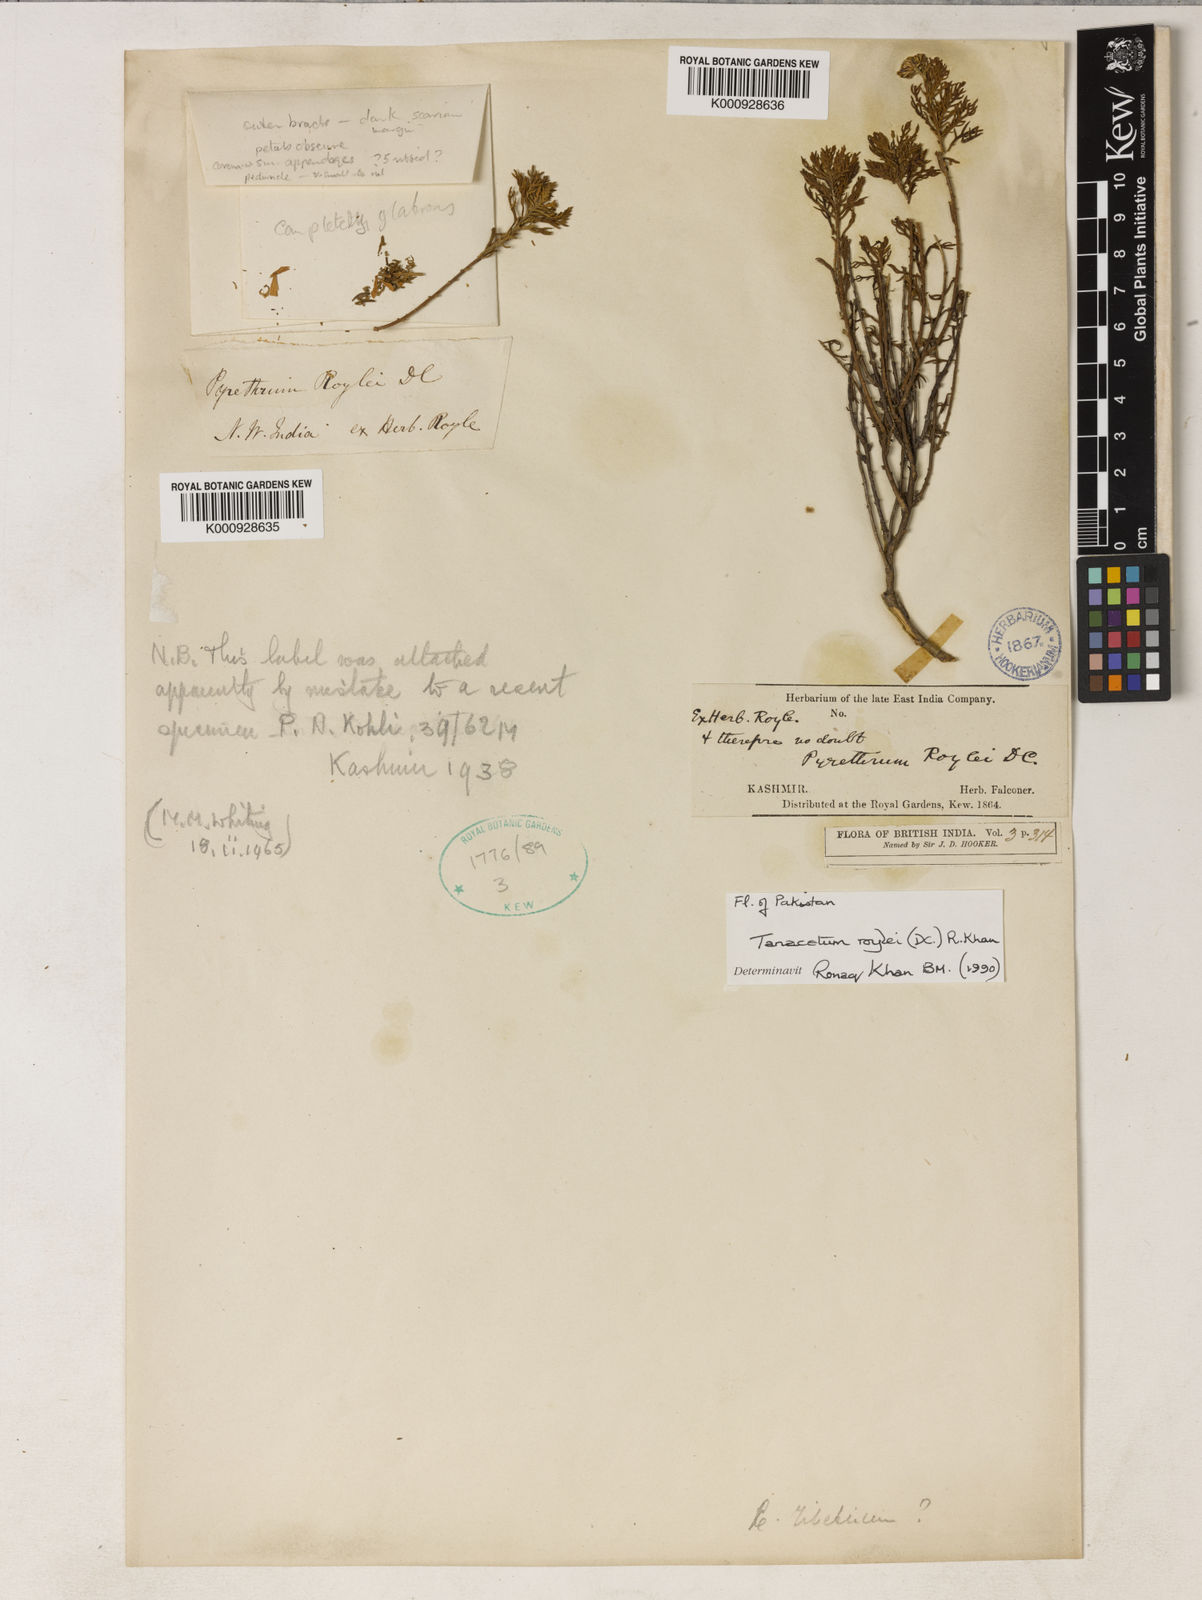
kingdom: Plantae
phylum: Tracheophyta
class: Magnoliopsida
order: Asterales
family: Asteraceae
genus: Tanacetum
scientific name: Tanacetum roylei
